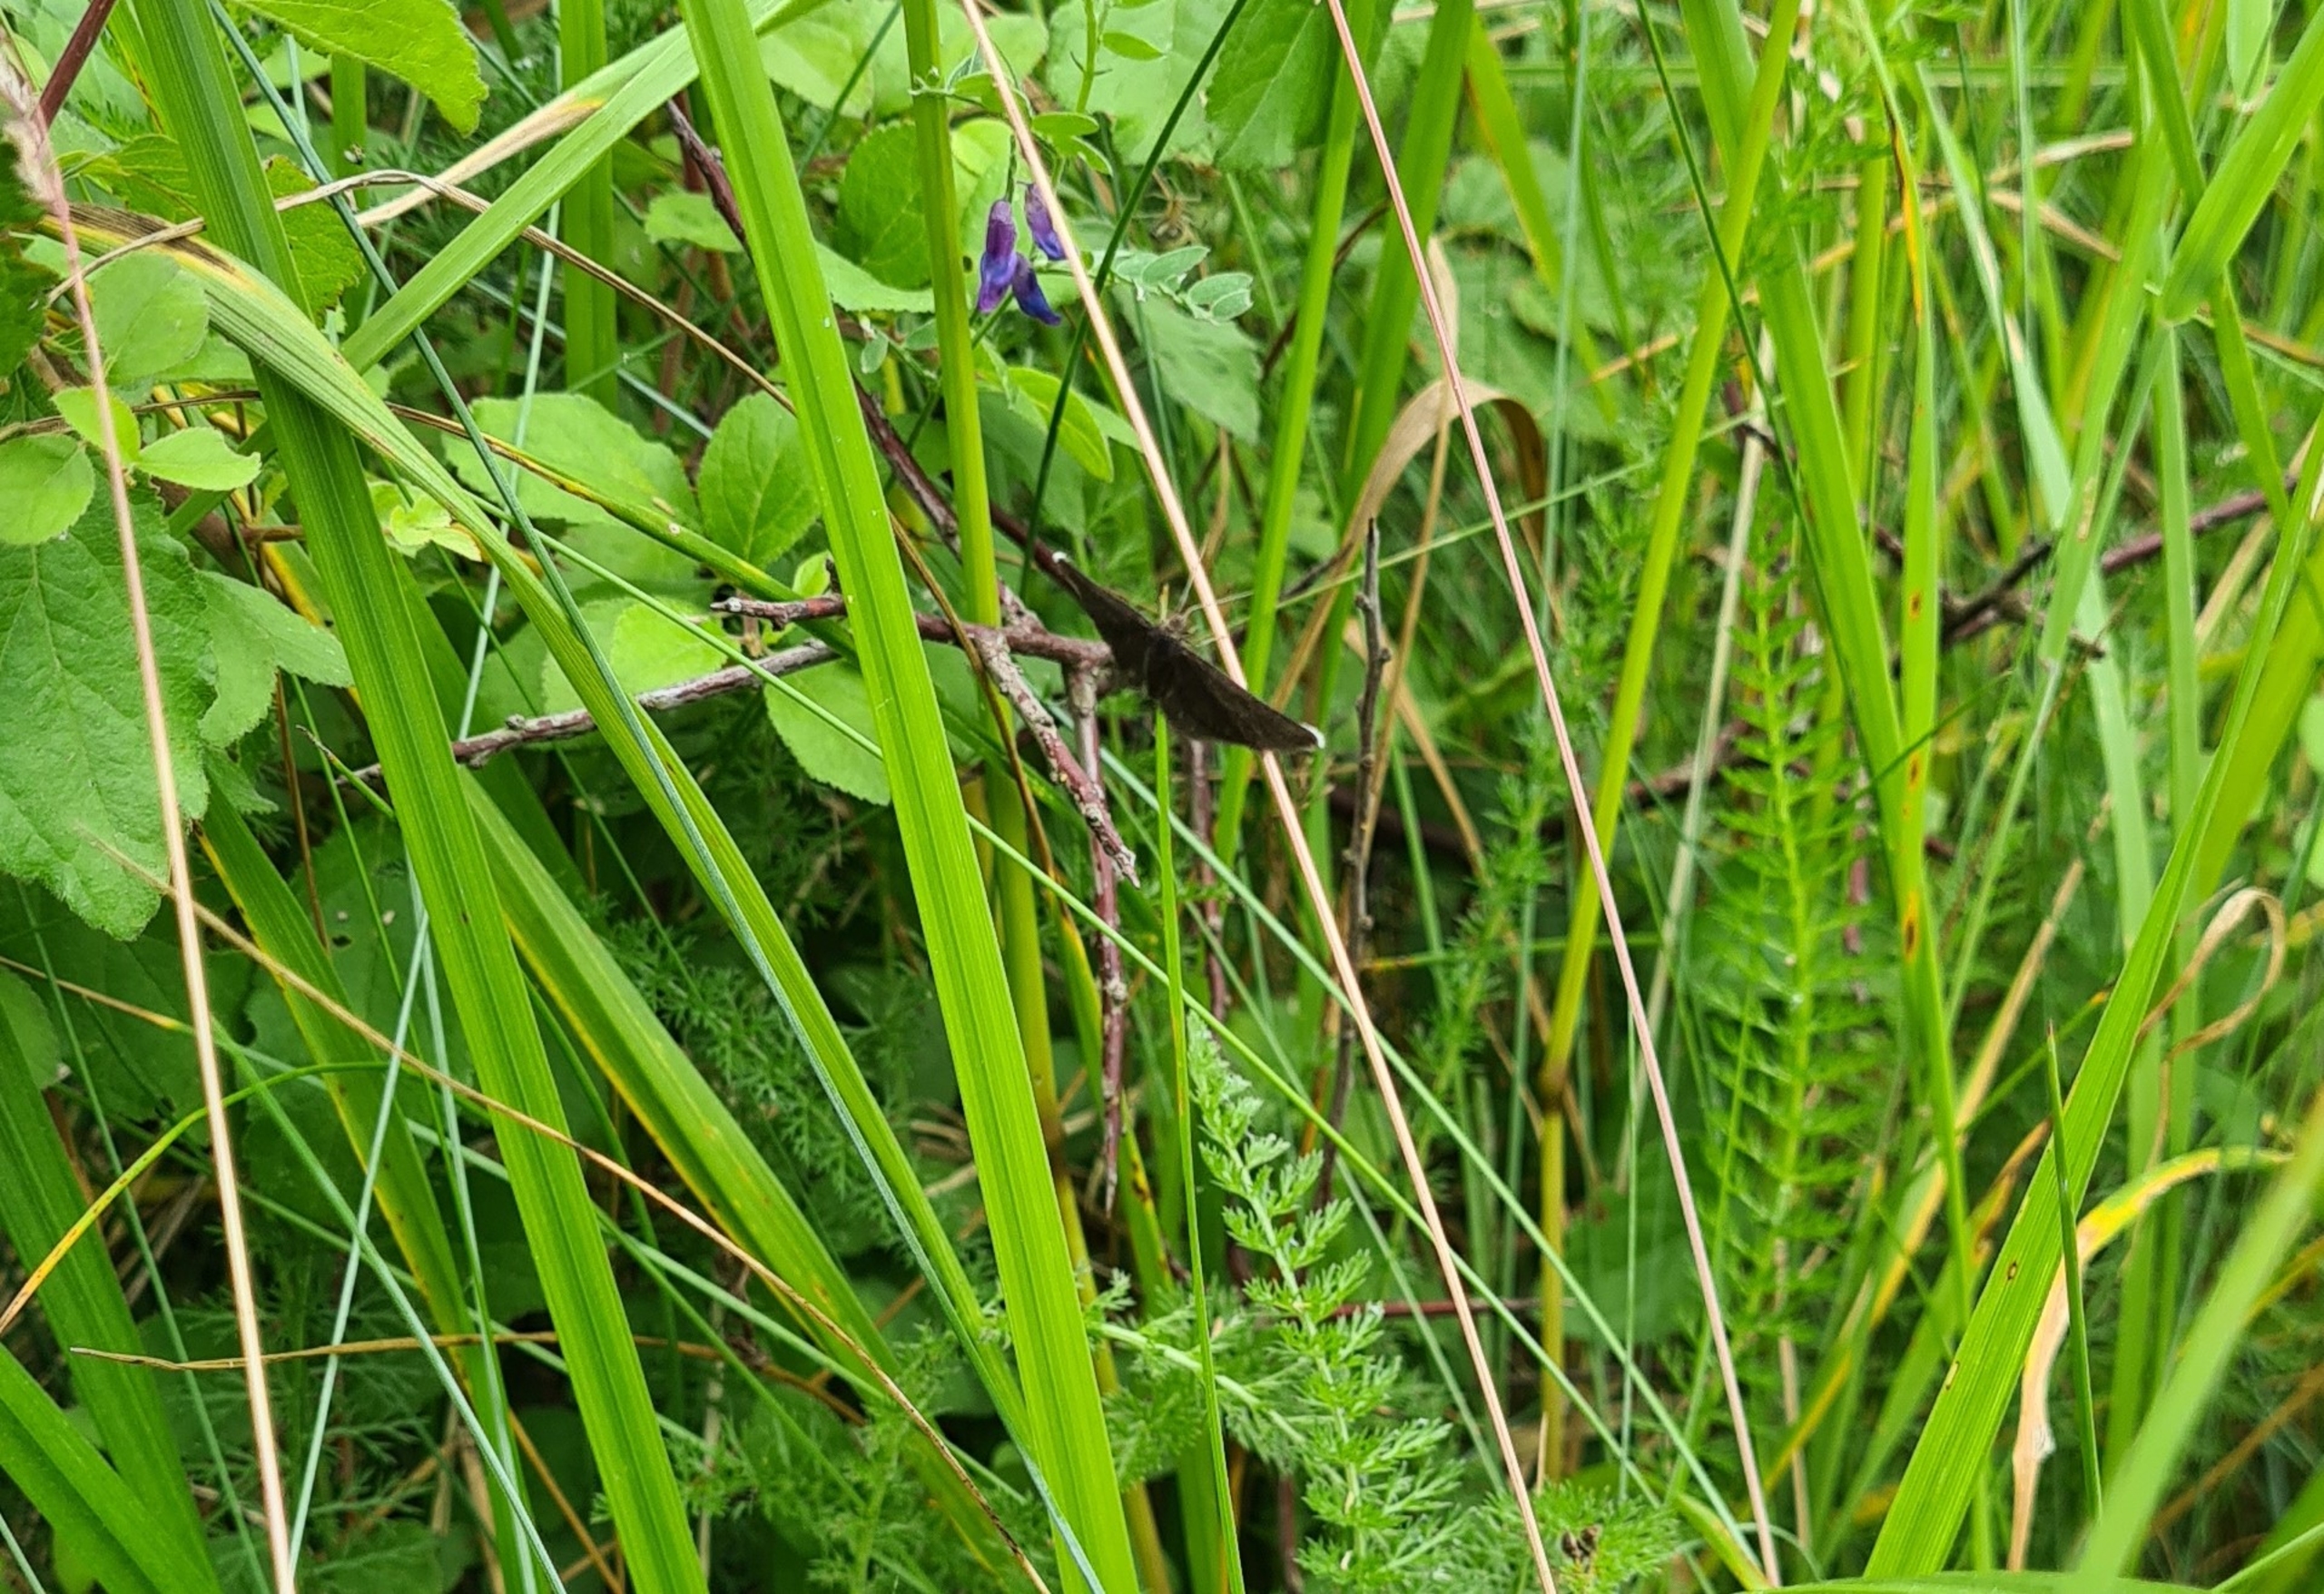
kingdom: Animalia
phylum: Arthropoda
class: Insecta
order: Lepidoptera
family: Geometridae
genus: Odezia
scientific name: Odezia atrata
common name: Sort måler
